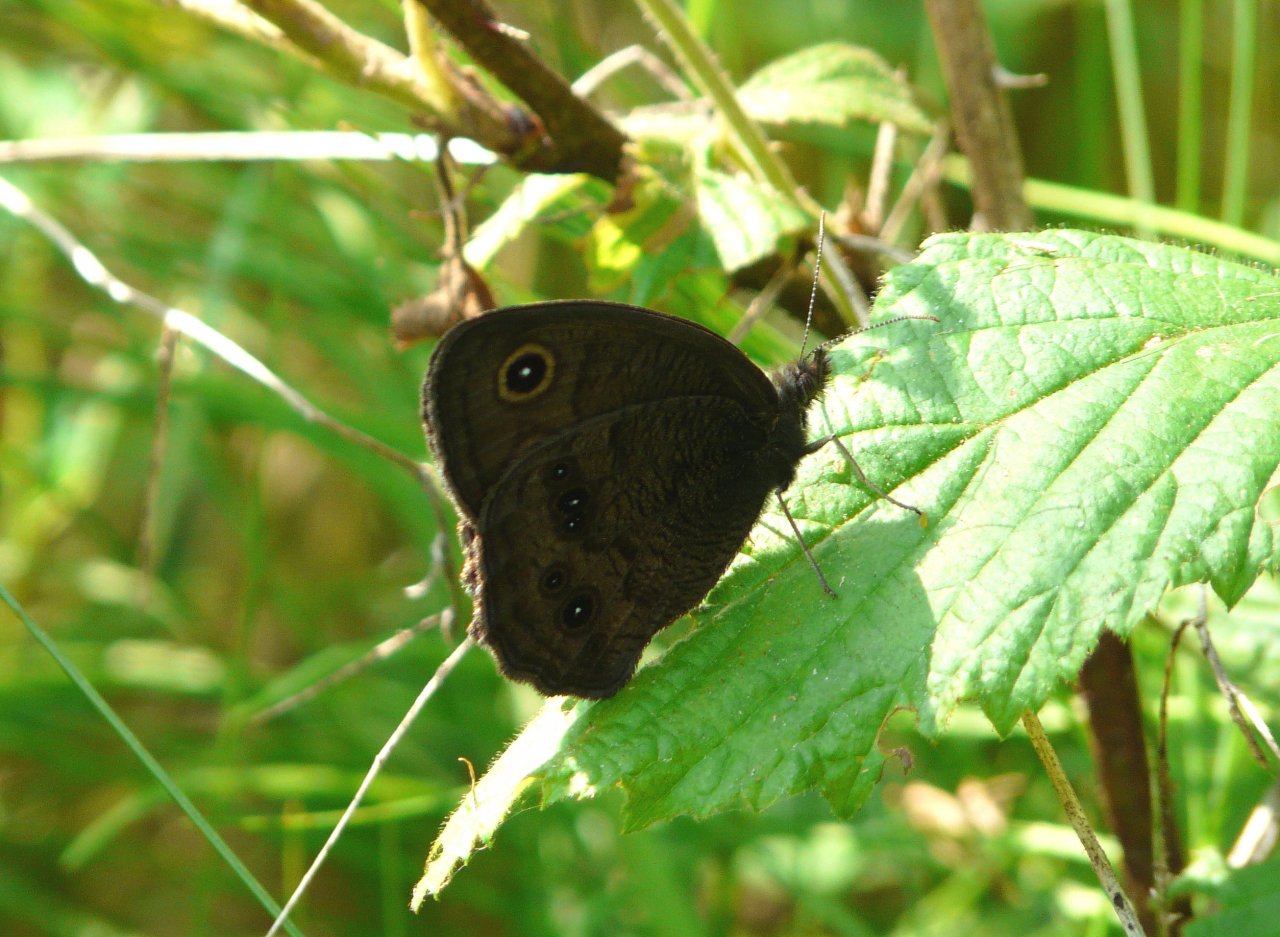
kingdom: Animalia
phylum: Arthropoda
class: Insecta
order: Lepidoptera
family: Nymphalidae
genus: Cercyonis
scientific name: Cercyonis pegala
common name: Common Wood-Nymph
